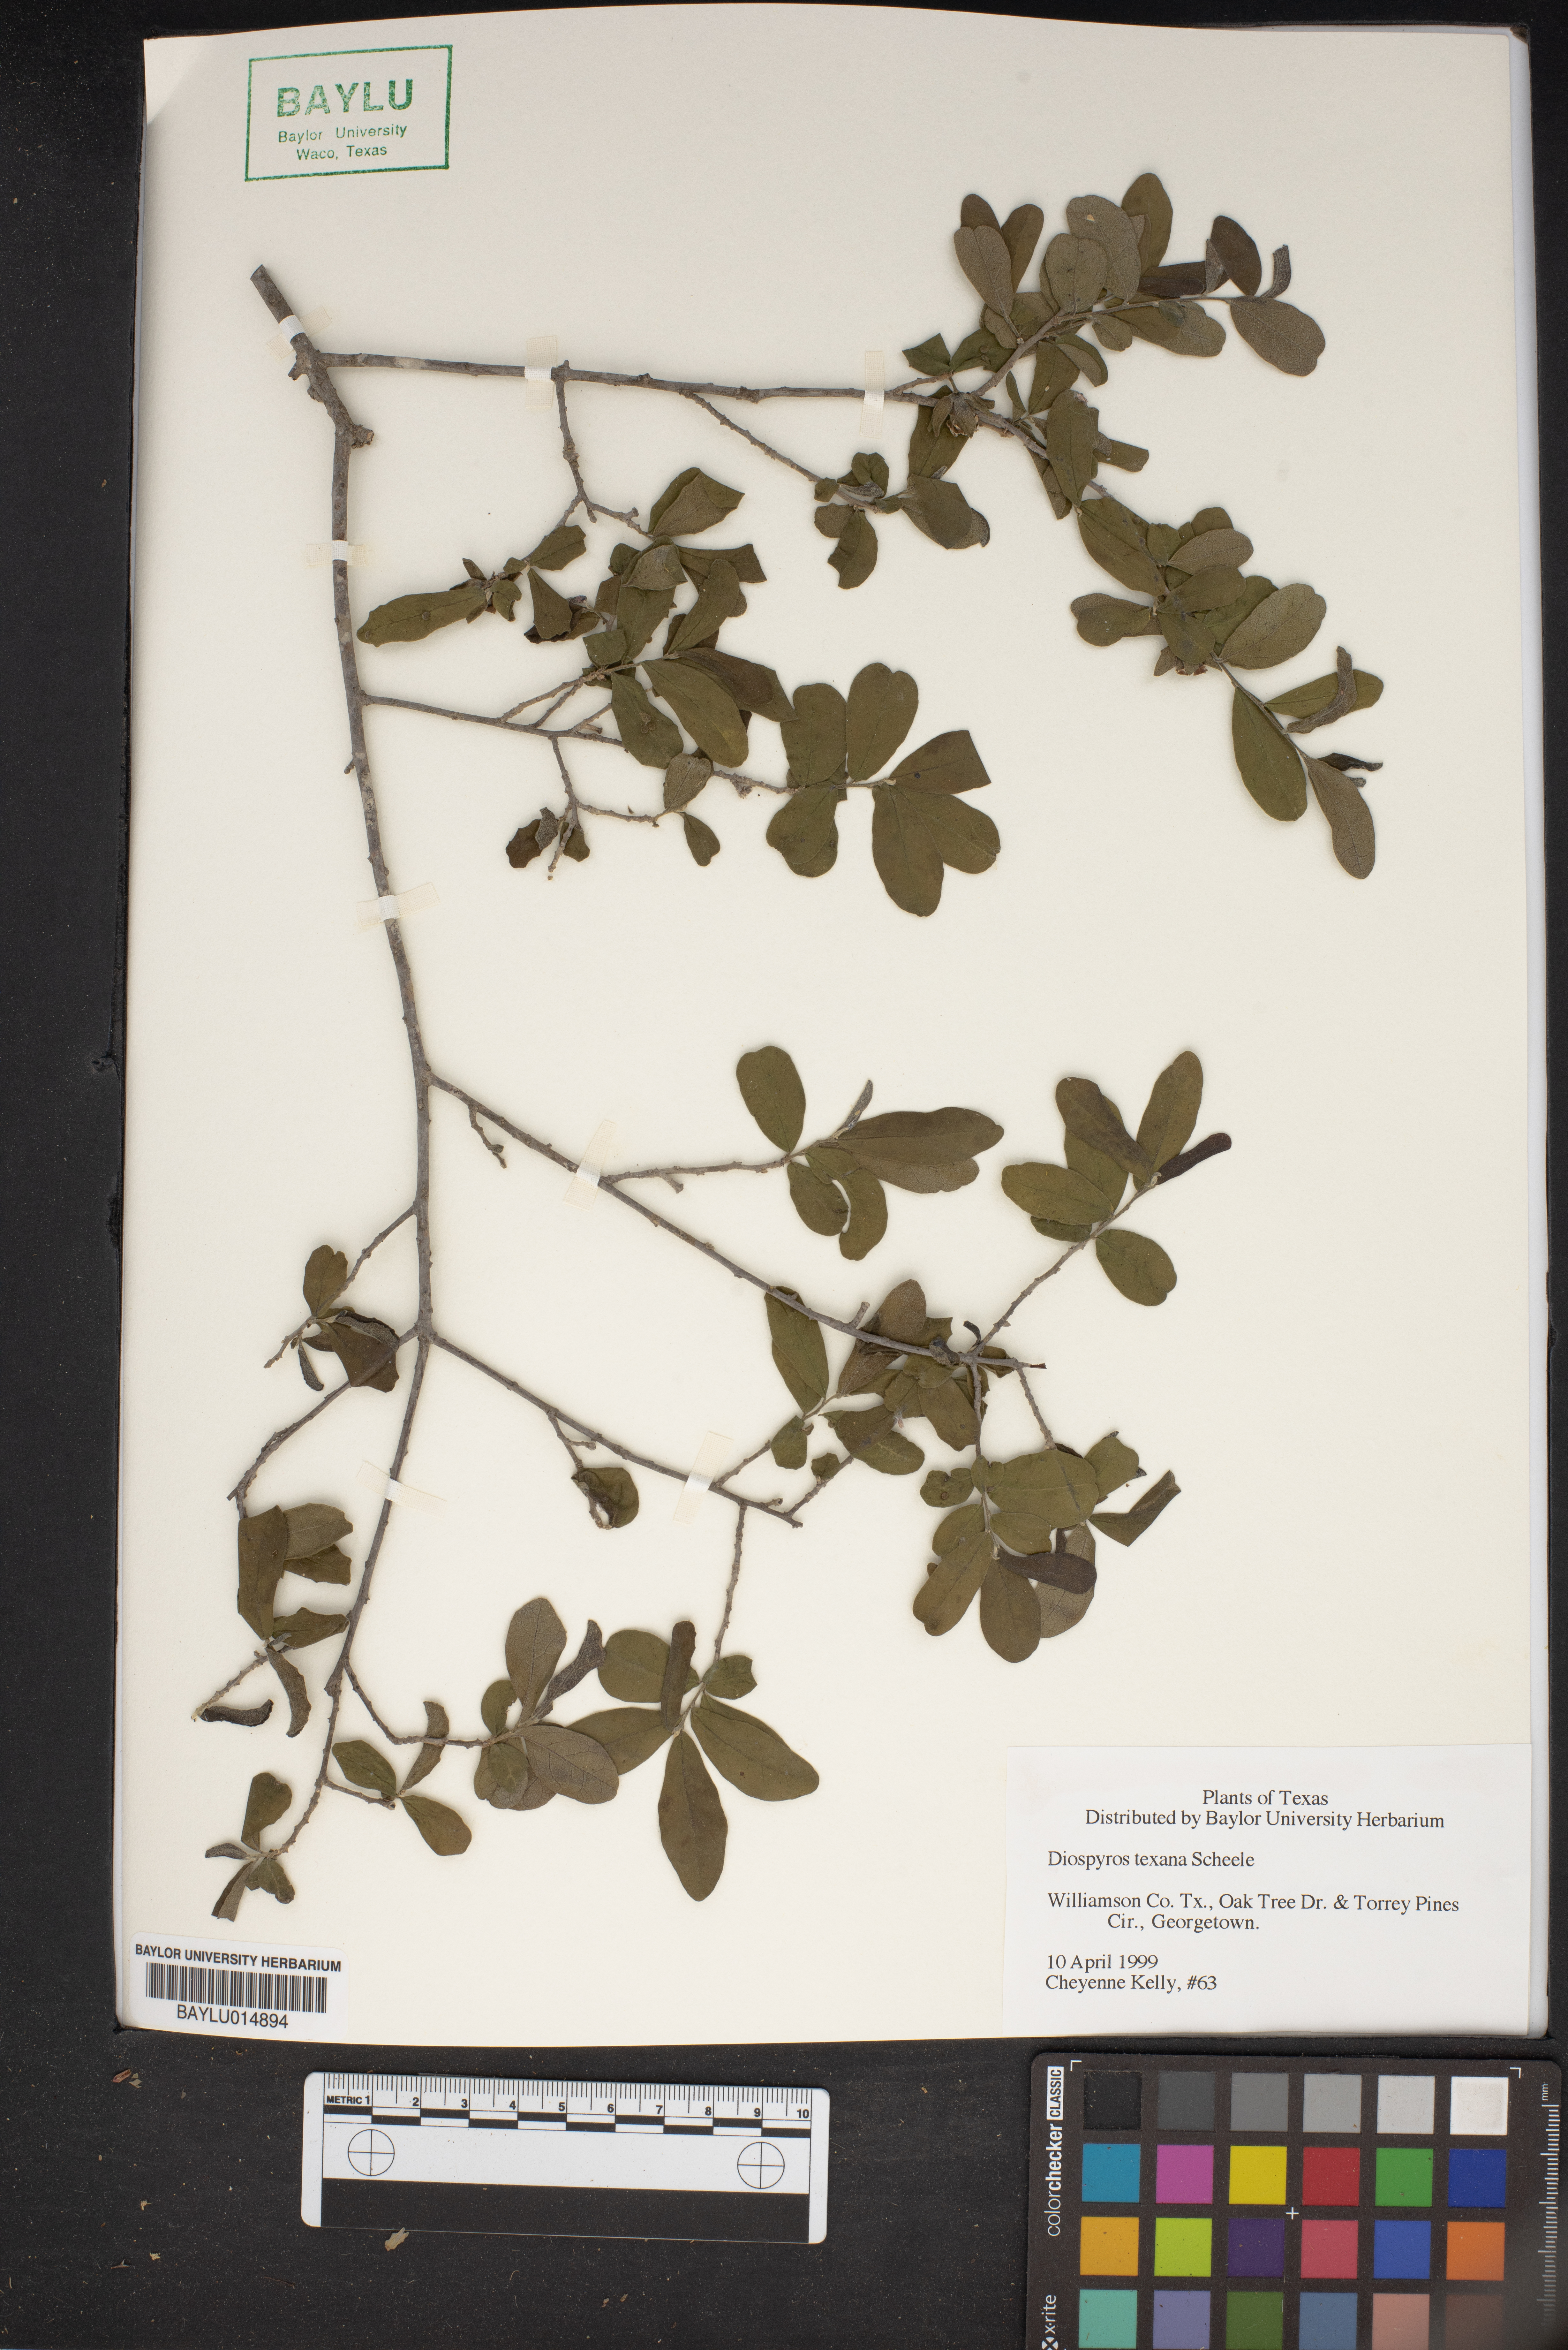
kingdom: Plantae
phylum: Tracheophyta
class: Magnoliopsida
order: Ericales
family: Ebenaceae
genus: Diospyros
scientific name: Diospyros texana
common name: Texas persimmon
